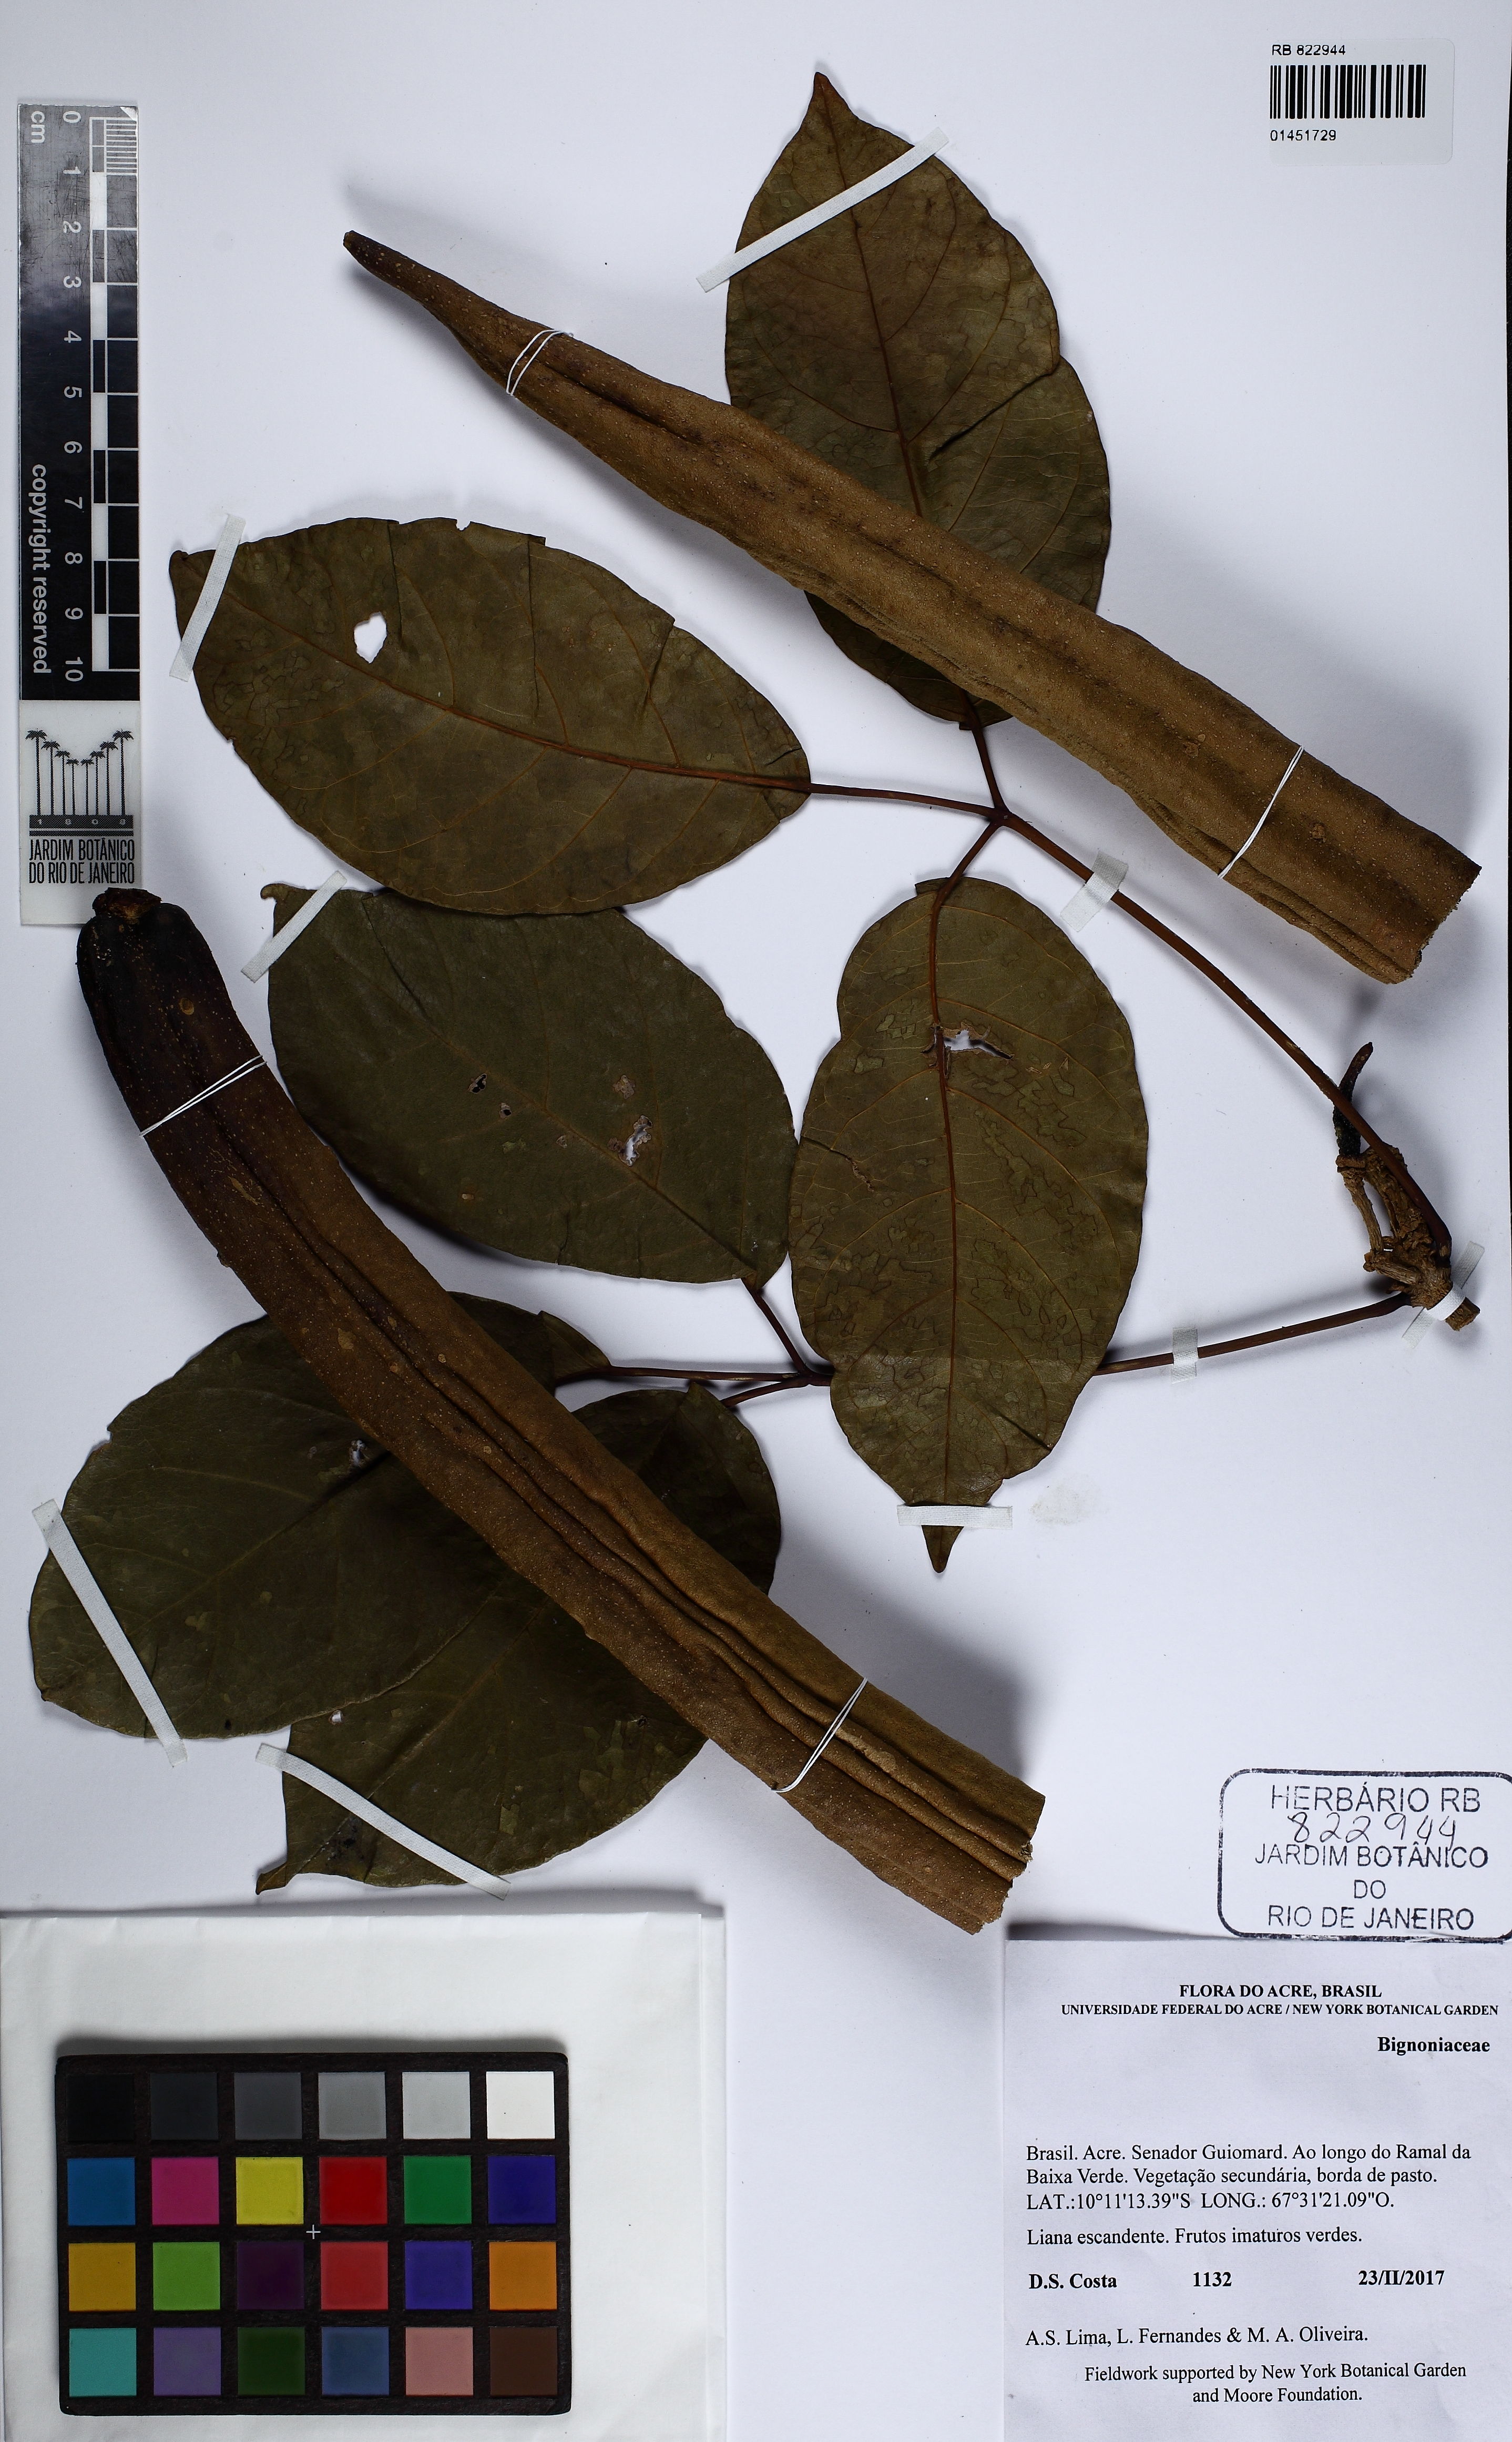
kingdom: Plantae
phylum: Tracheophyta
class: Magnoliopsida
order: Lamiales
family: Bignoniaceae
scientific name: Bignoniaceae
